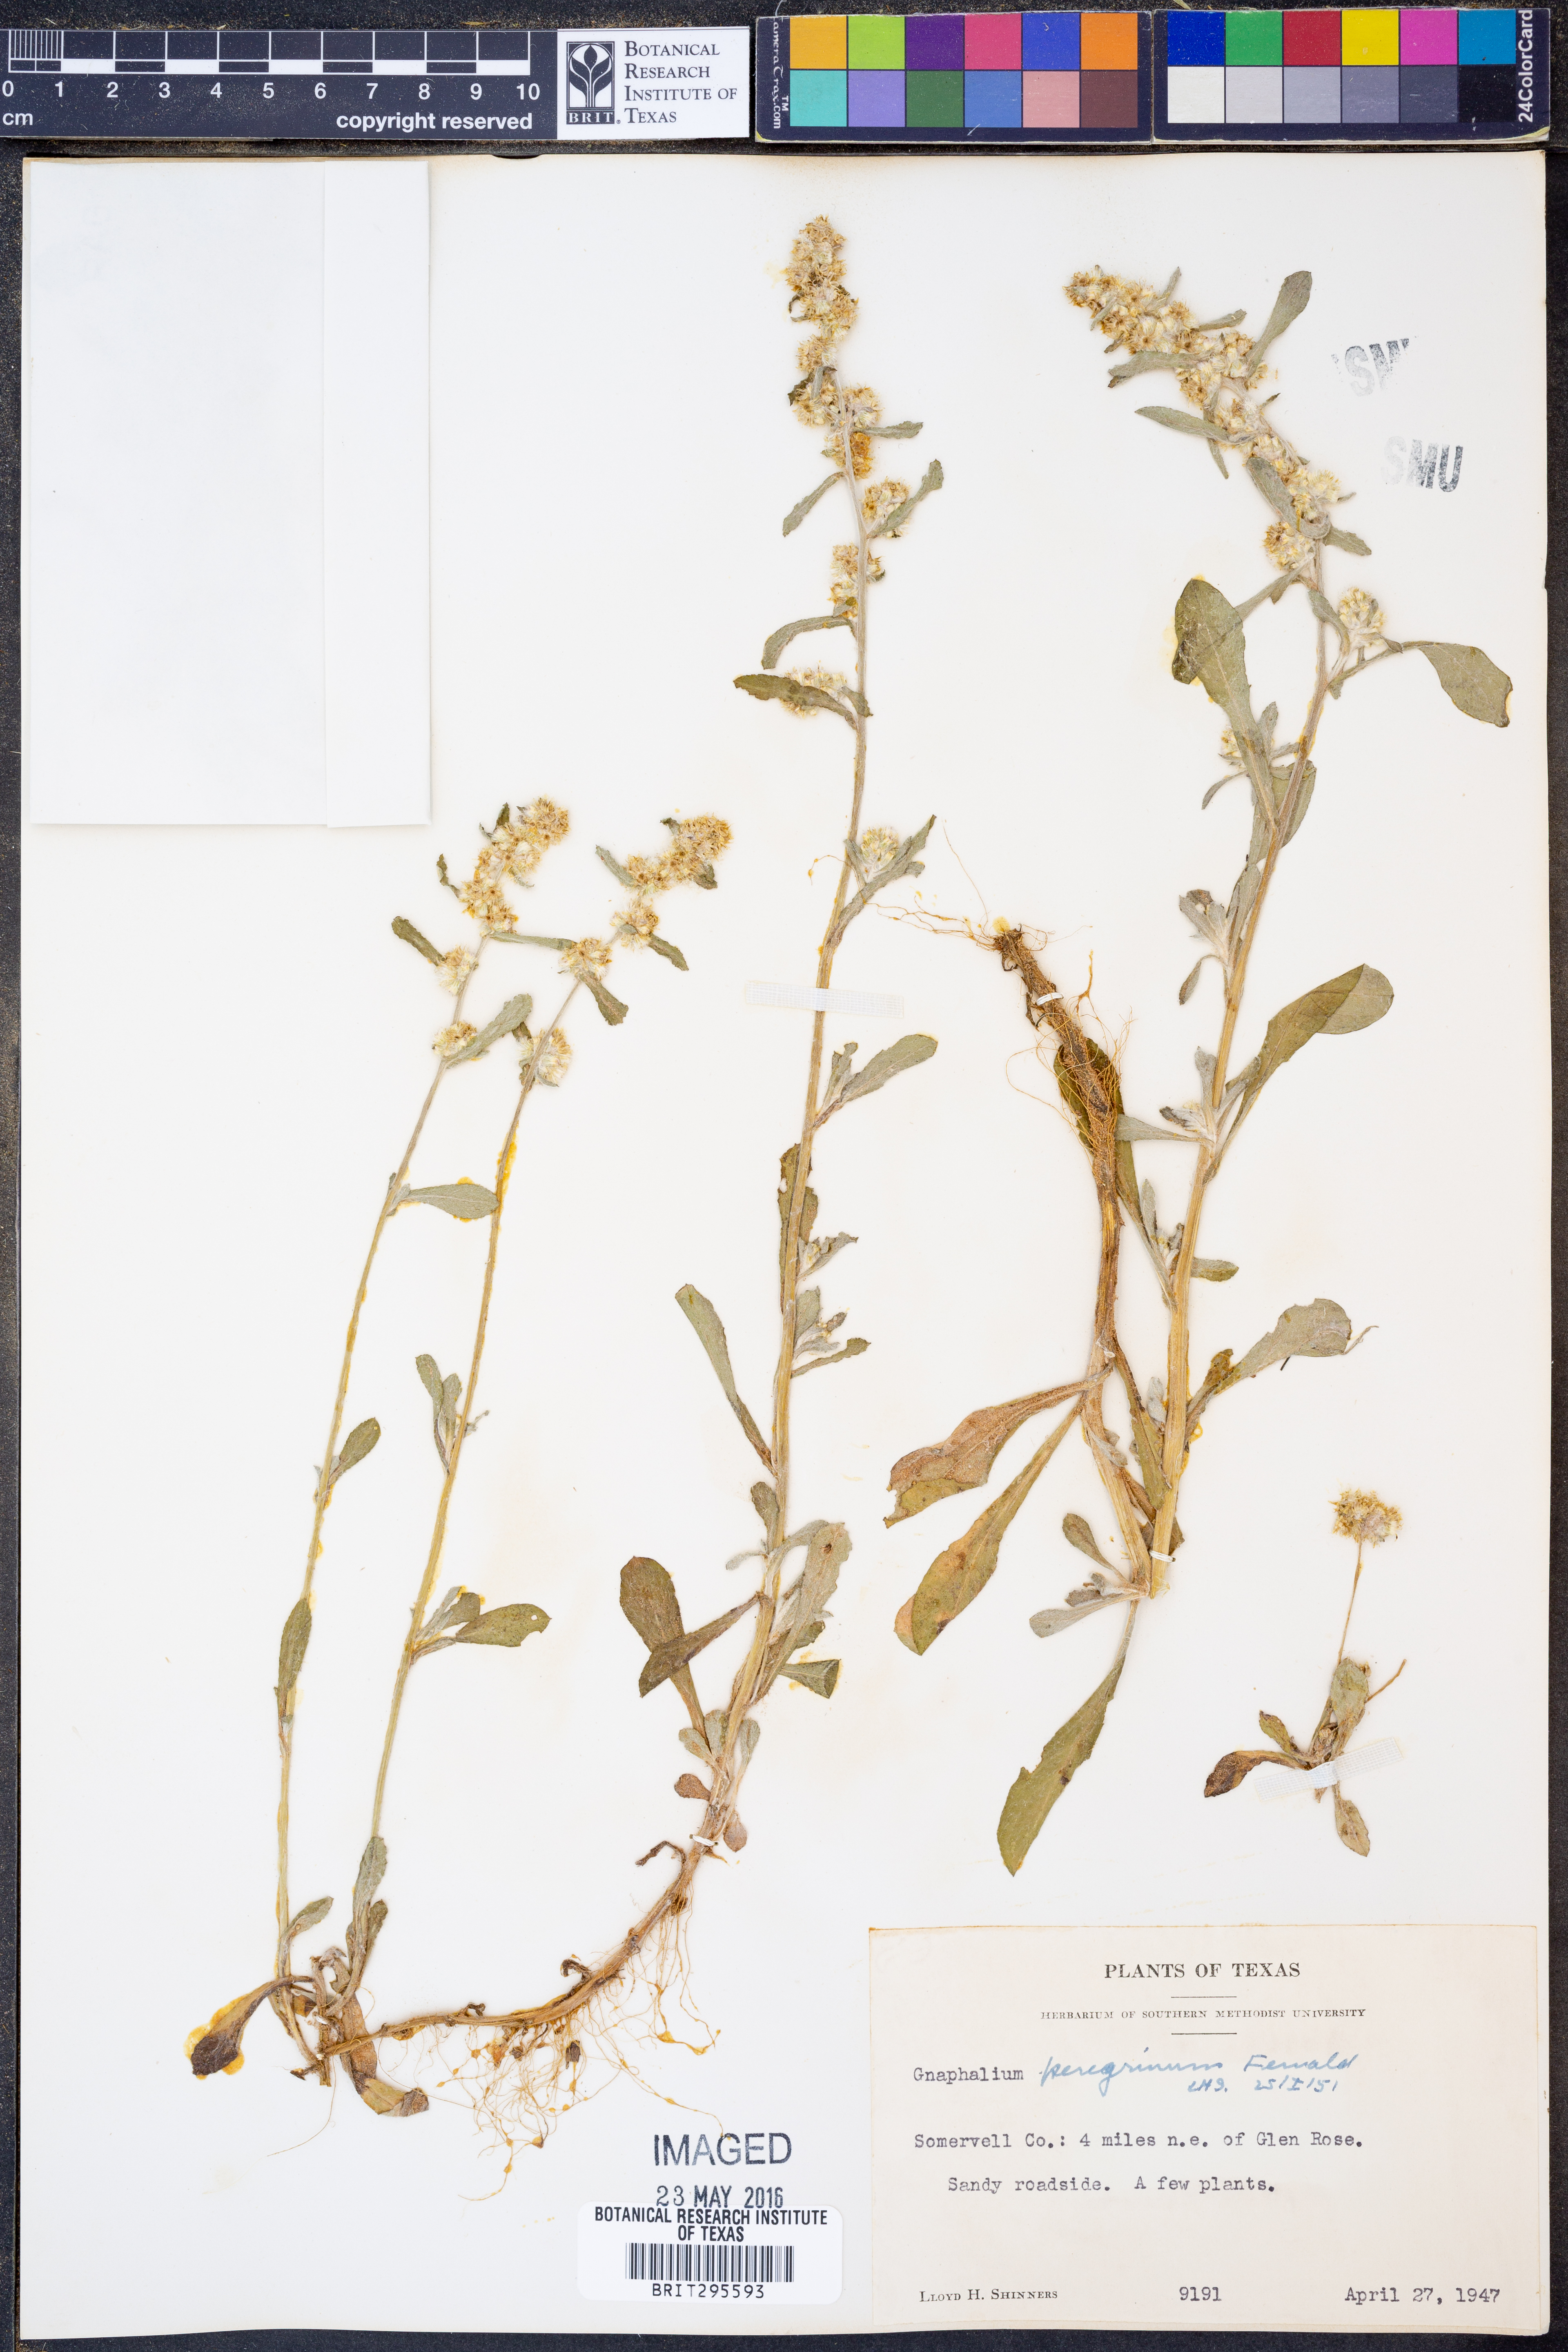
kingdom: Plantae
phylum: Tracheophyta
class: Magnoliopsida
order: Asterales
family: Asteraceae
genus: Gamochaeta
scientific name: Gamochaeta pensylvanica
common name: Pennsylvania everlasting
